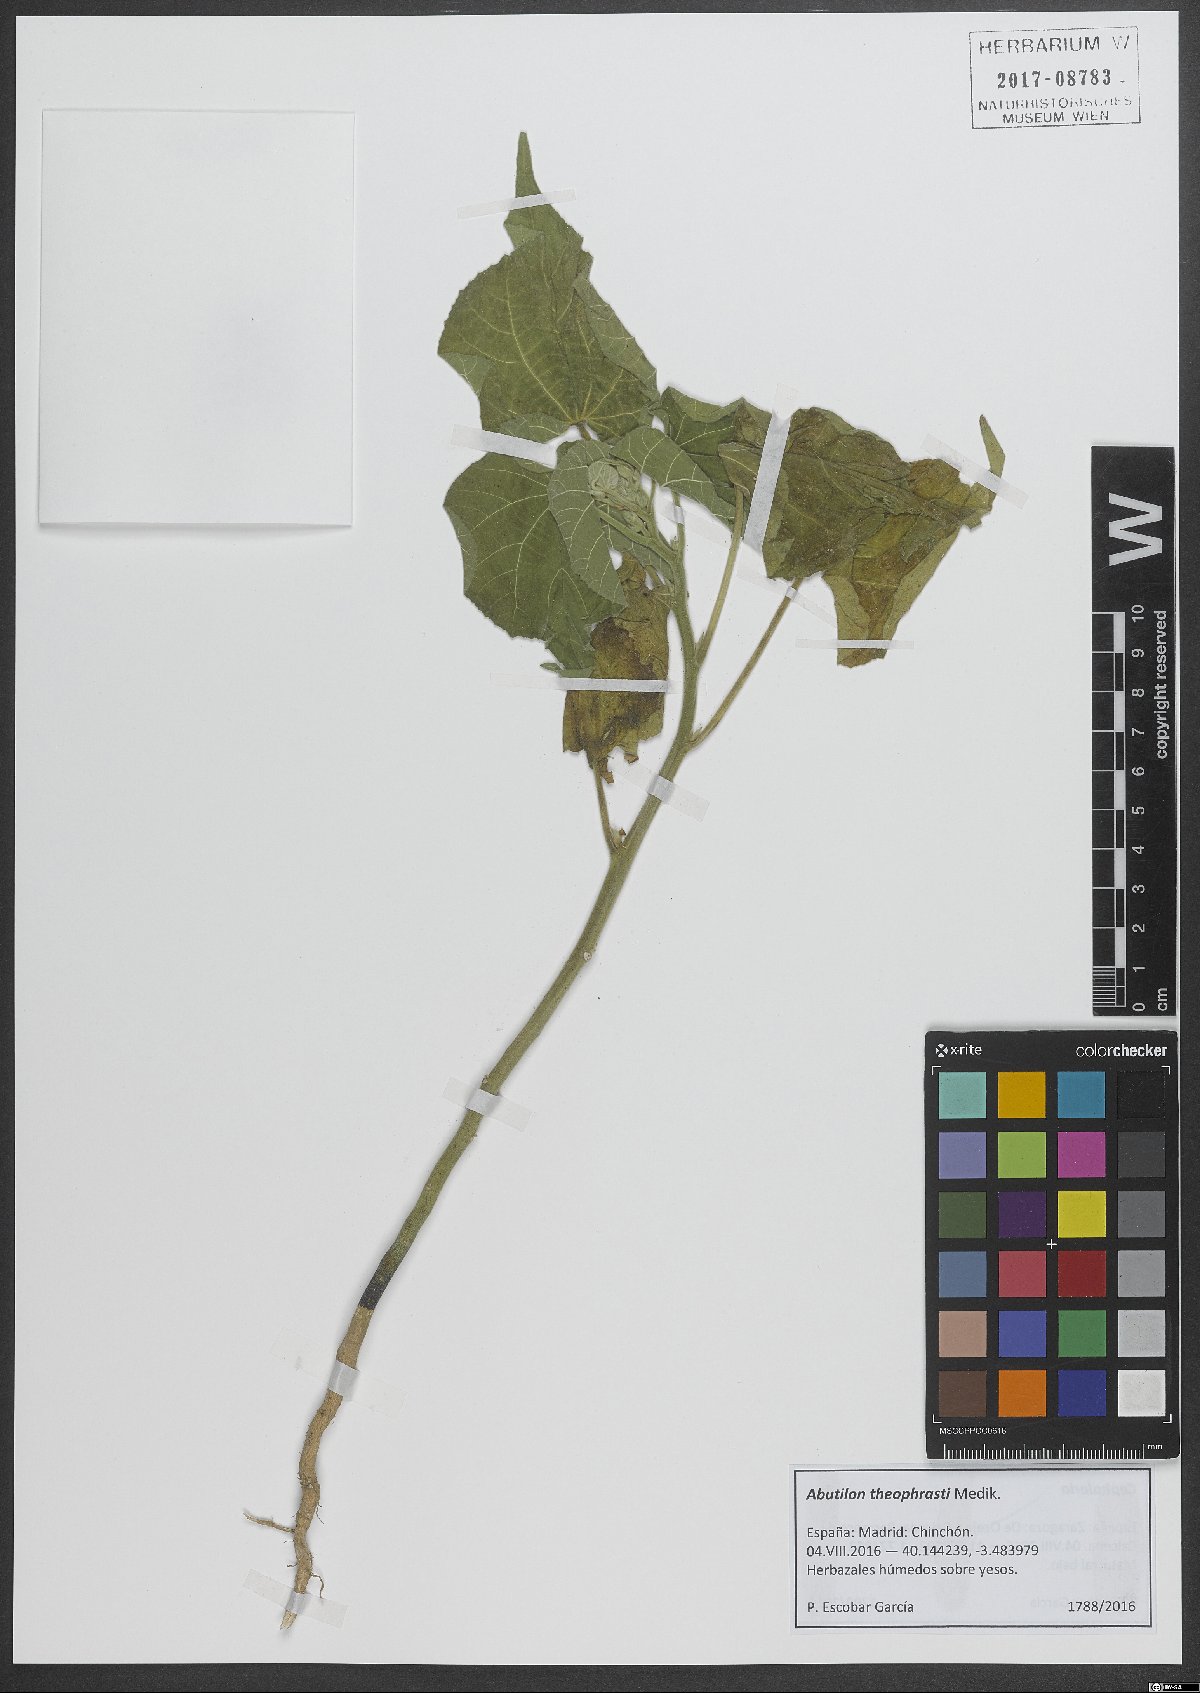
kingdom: Plantae
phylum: Tracheophyta
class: Magnoliopsida
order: Malvales
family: Malvaceae
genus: Abutilon
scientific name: Abutilon theophrasti
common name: Velvetleaf
